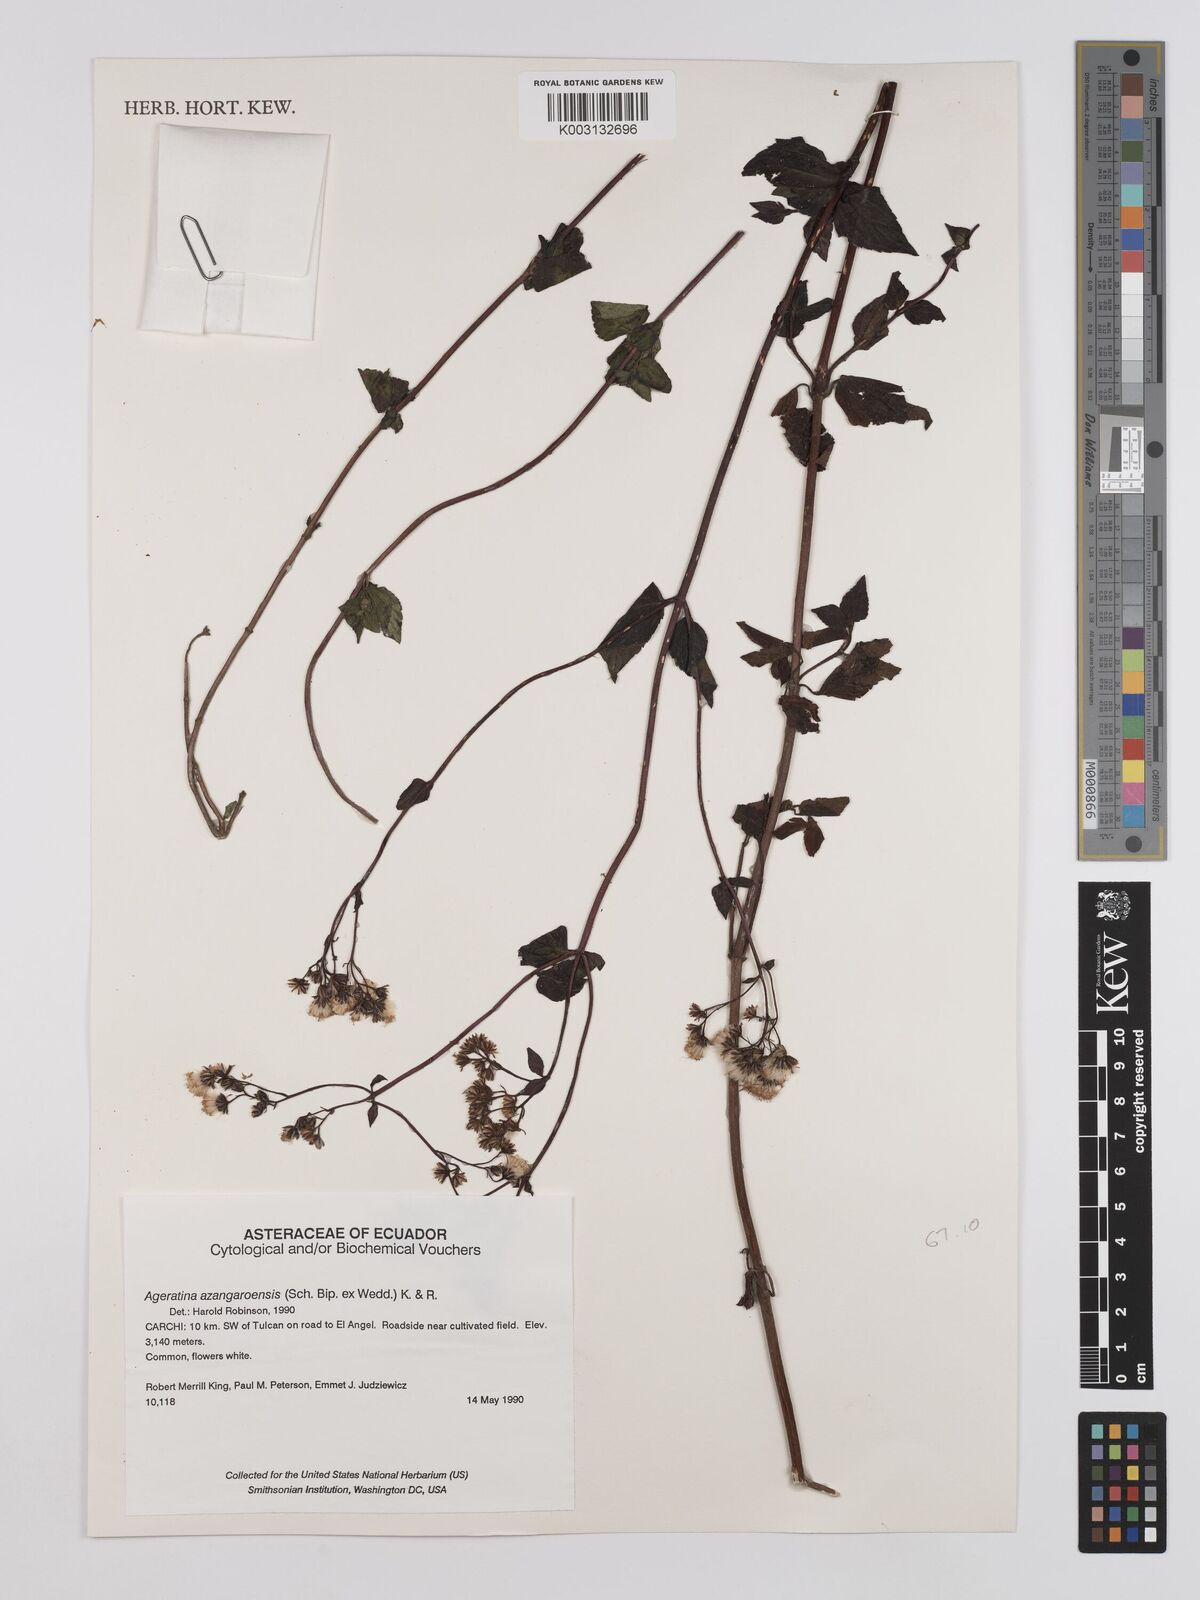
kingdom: Plantae
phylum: Tracheophyta
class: Magnoliopsida
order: Asterales
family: Asteraceae
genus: Ageratina
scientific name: Ageratina glechonophylla
